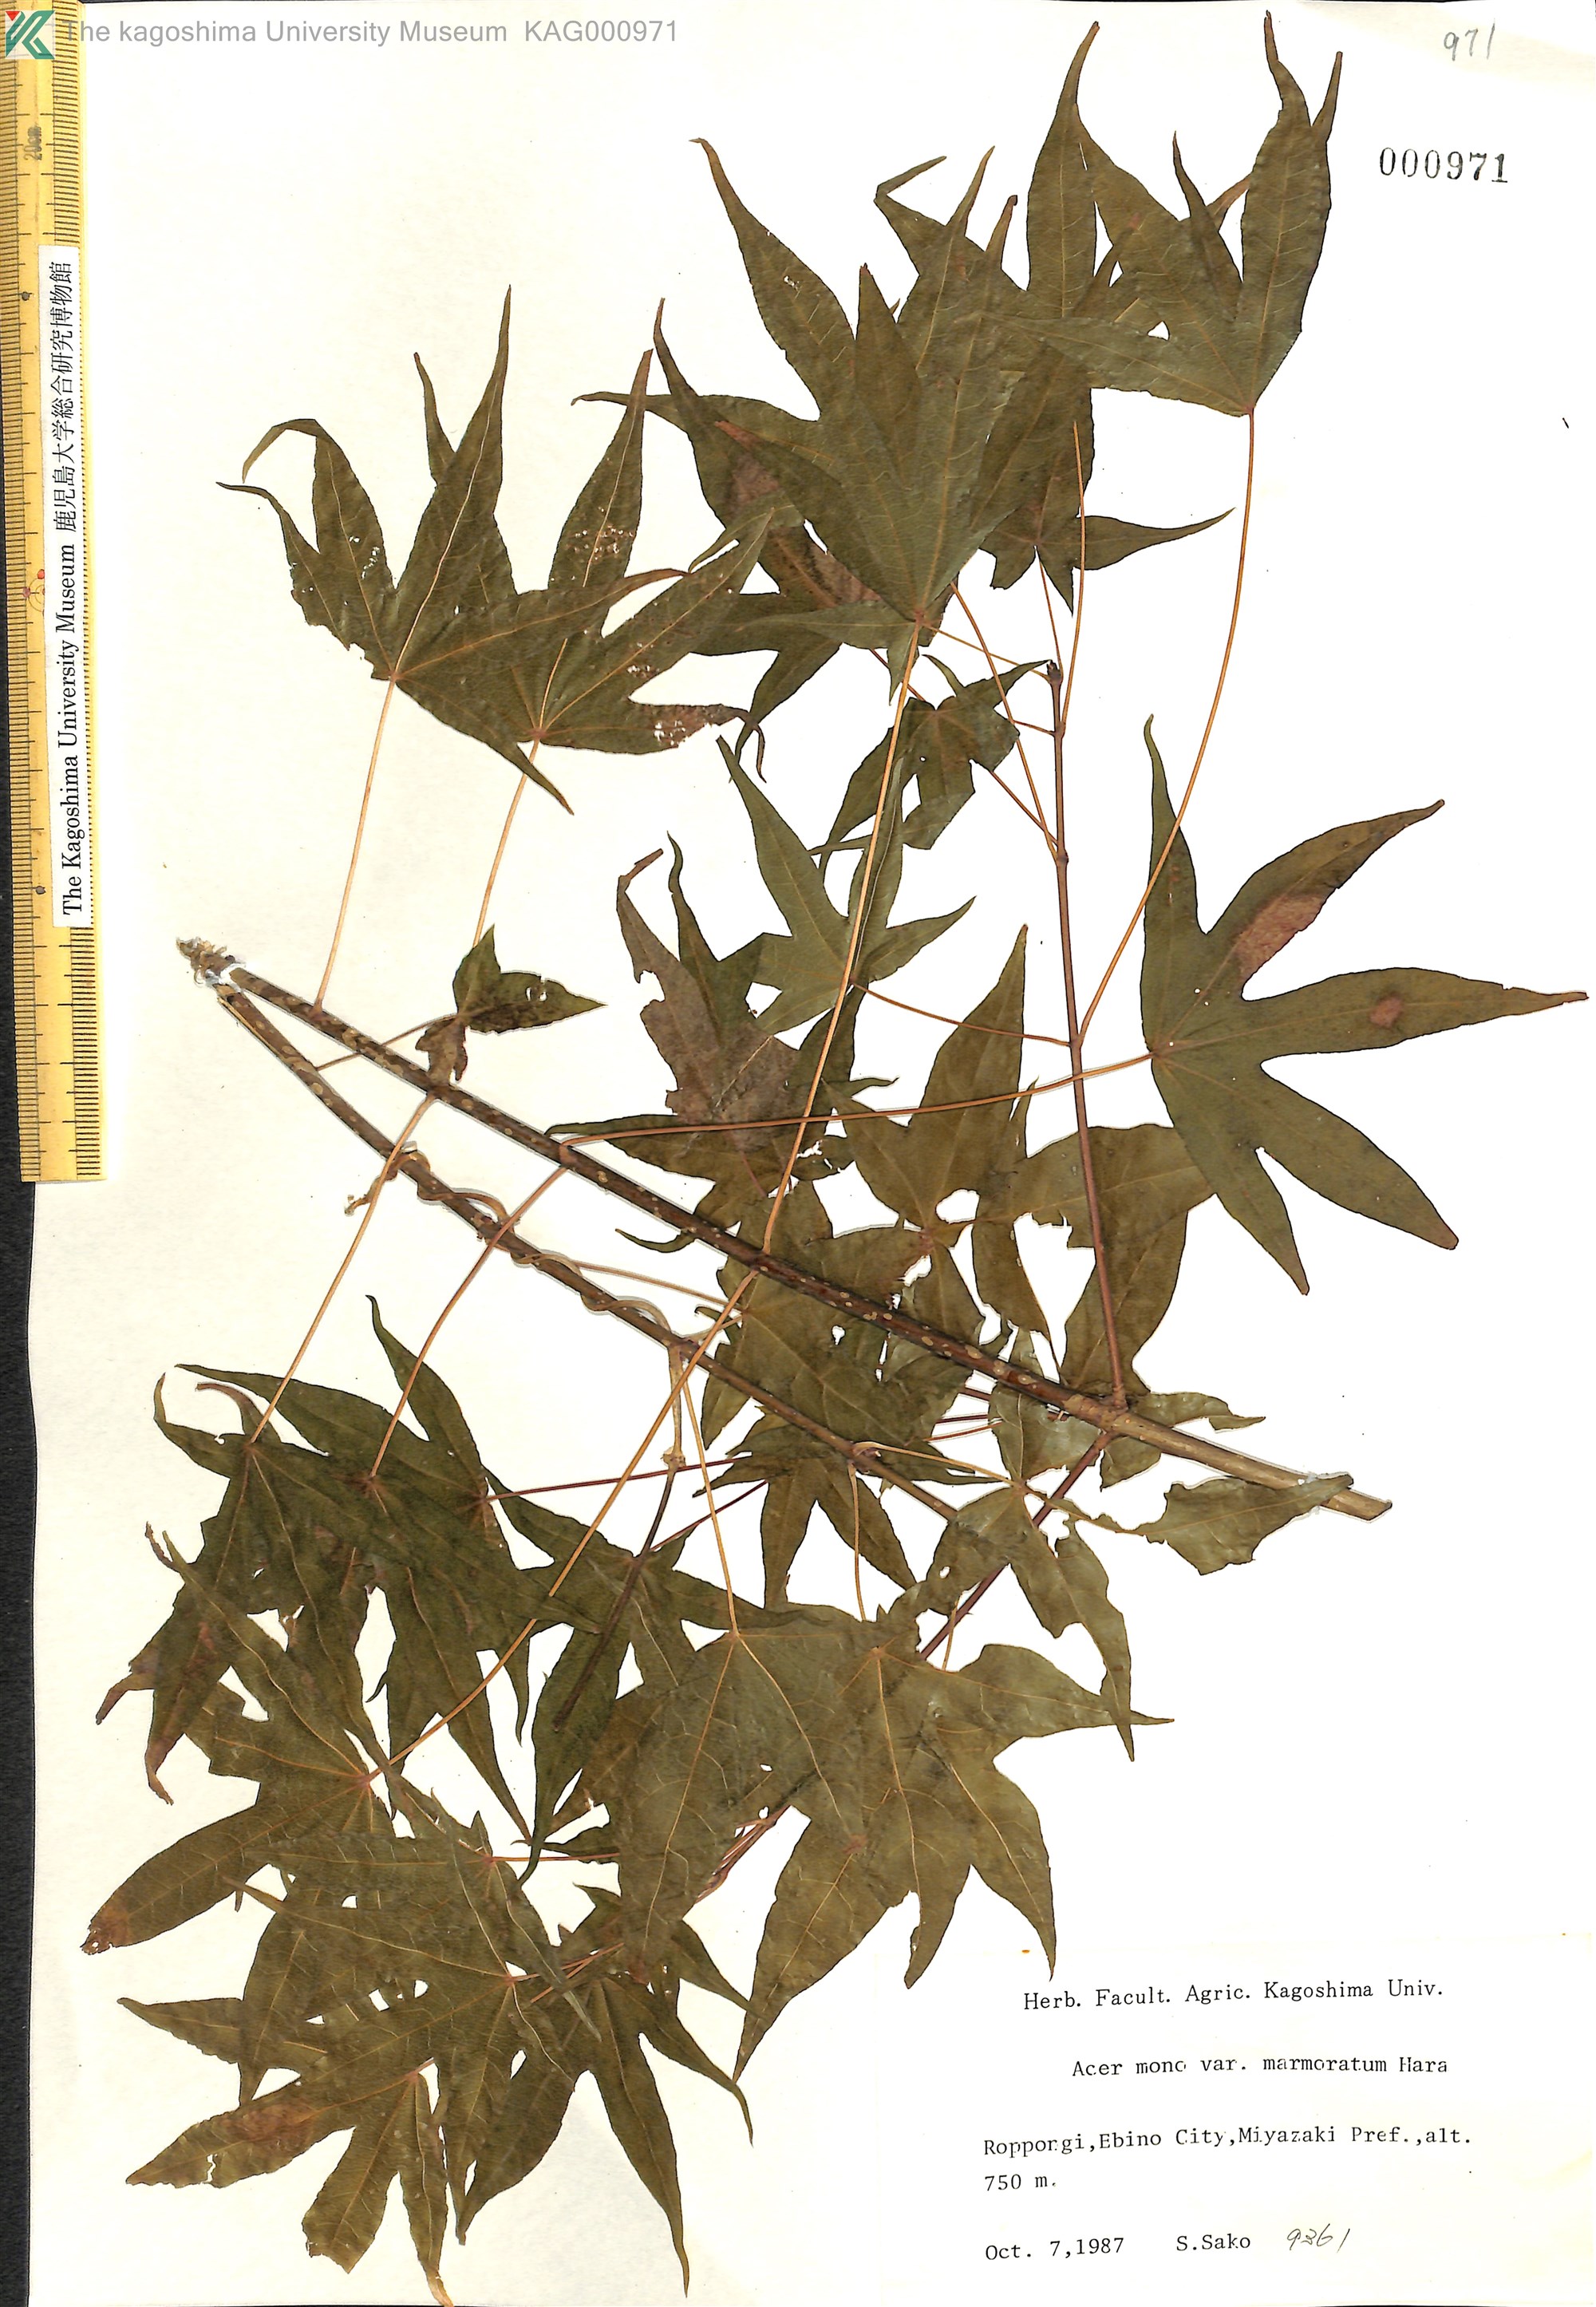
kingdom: Plantae
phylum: Tracheophyta
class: Magnoliopsida
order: Sapindales
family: Sapindaceae
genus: Acer
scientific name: Acer pictum
